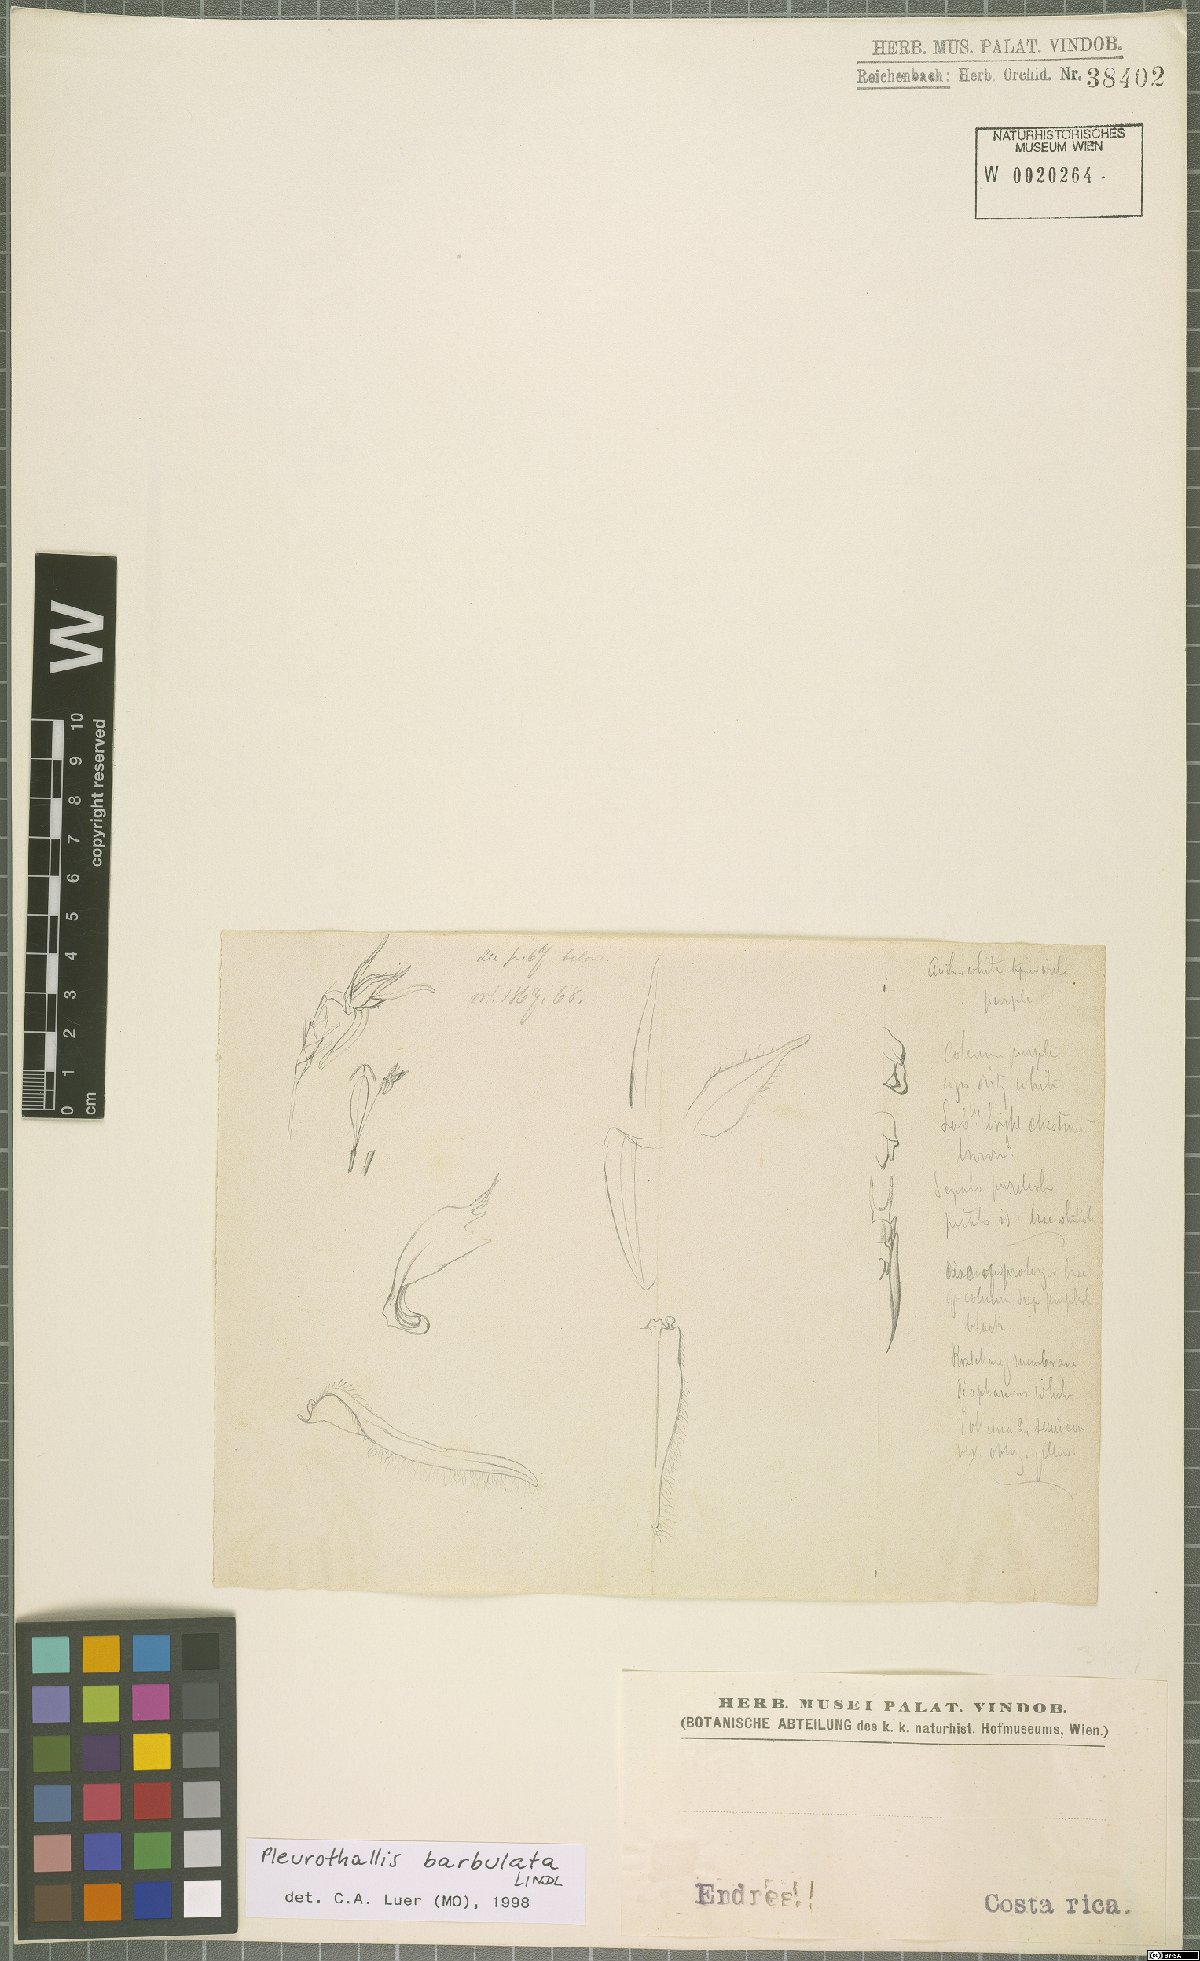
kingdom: Plantae
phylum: Tracheophyta
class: Liliopsida
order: Asparagales
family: Orchidaceae
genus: Anathallis
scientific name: Anathallis barbulata
